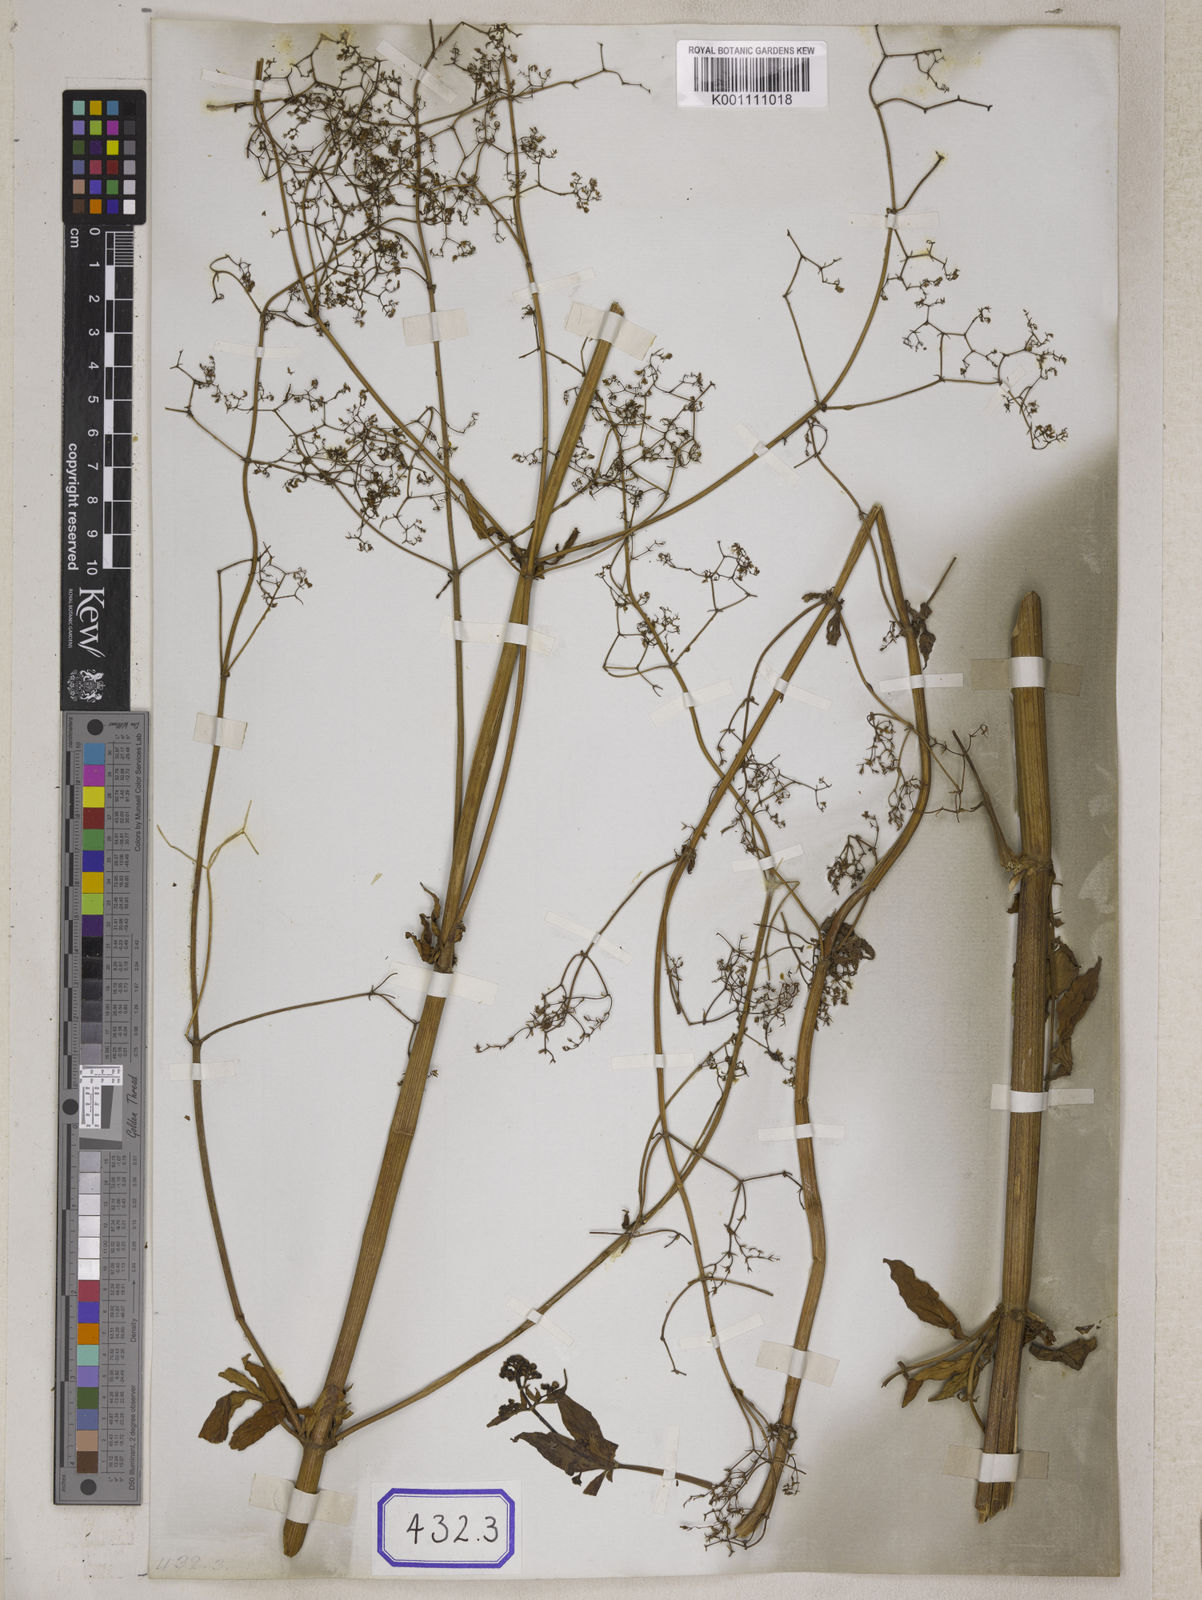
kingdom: Plantae
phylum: Tracheophyta
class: Magnoliopsida
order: Dipsacales
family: Caprifoliaceae
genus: Valeriana
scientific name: Valeriana hardwickei
